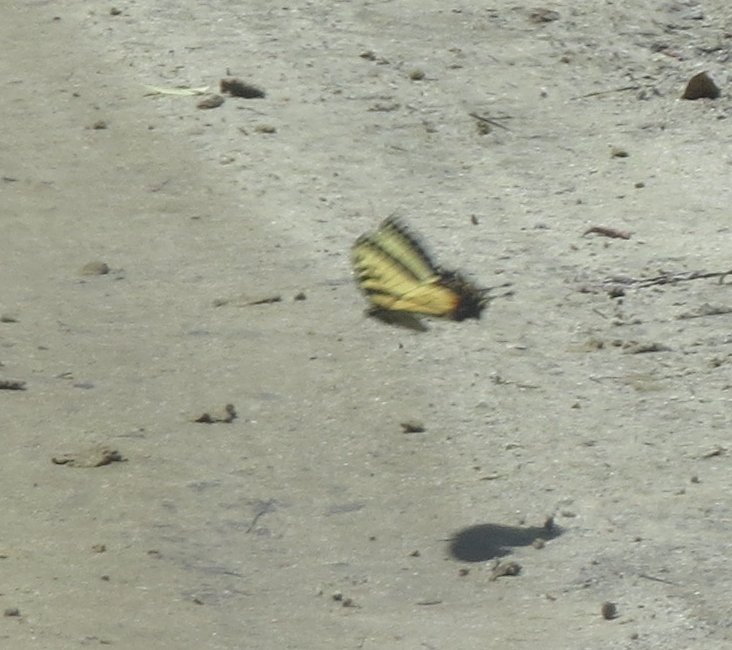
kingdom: Animalia
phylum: Arthropoda
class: Insecta
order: Lepidoptera
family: Papilionidae
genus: Pterourus
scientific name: Pterourus glaucus
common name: Eastern Tiger Swallowtail
